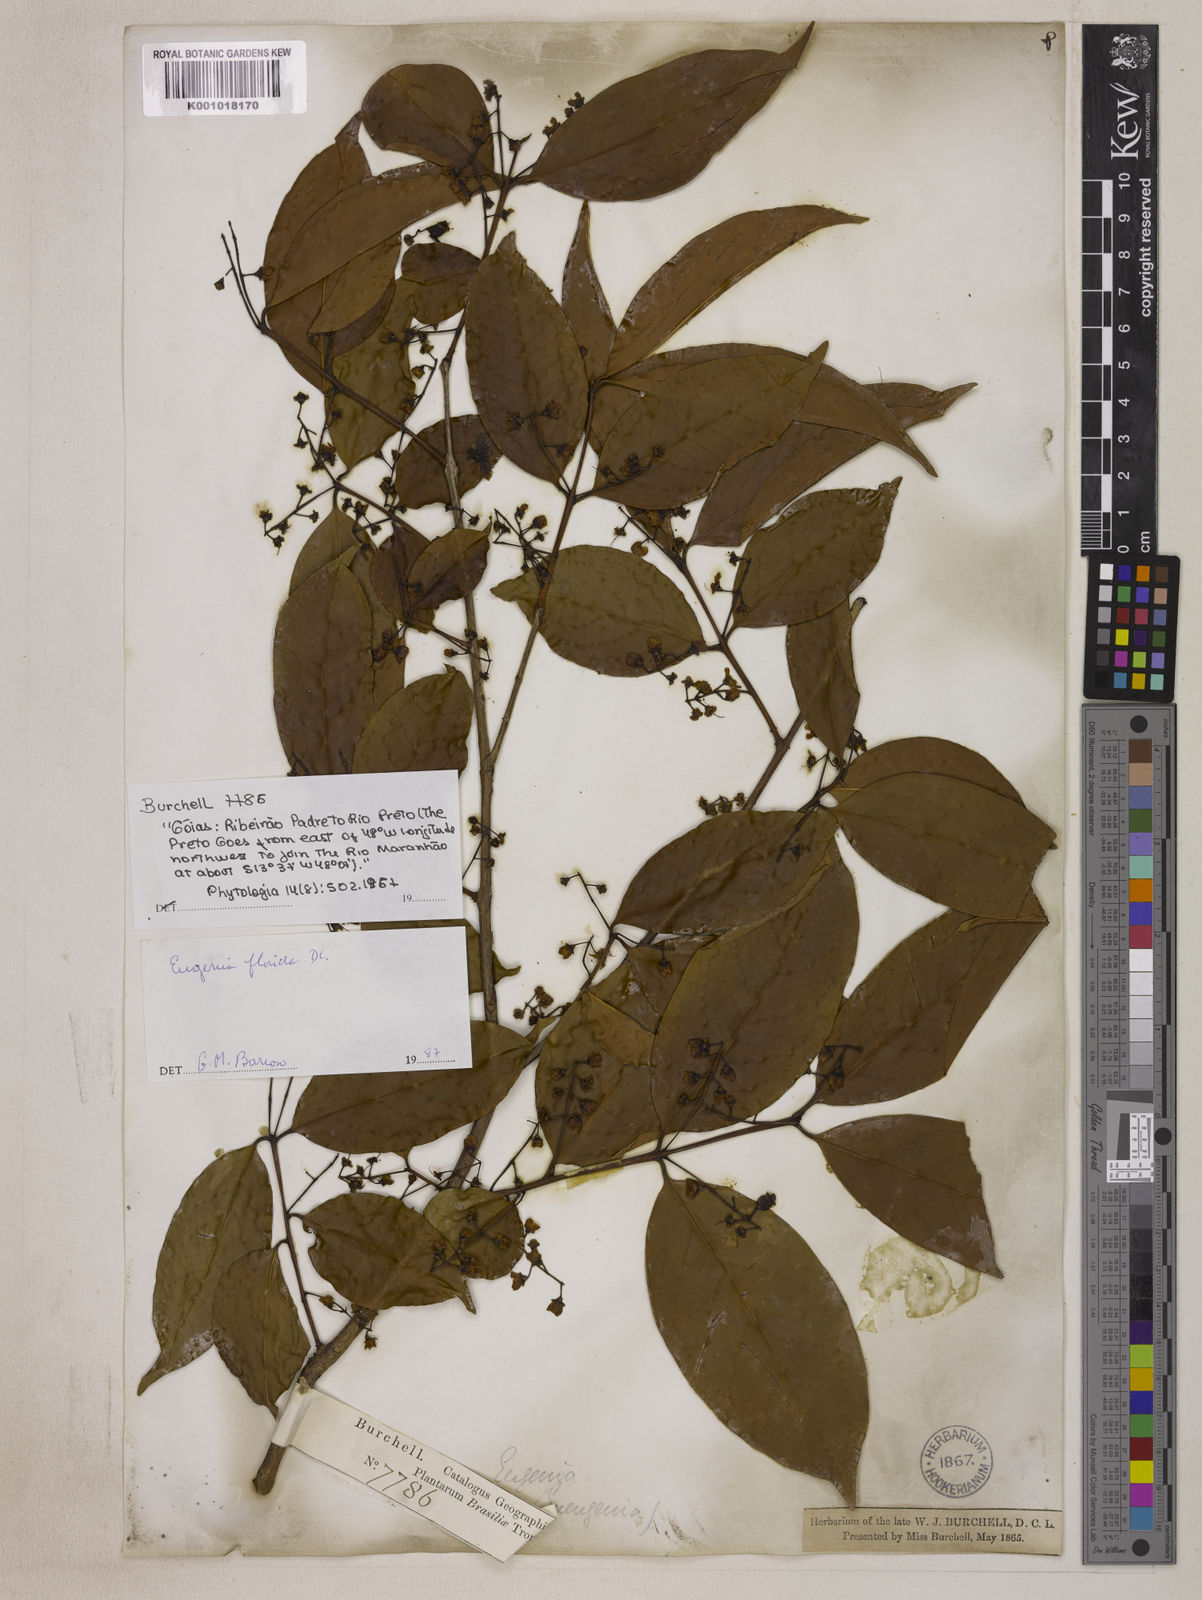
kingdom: Plantae
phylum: Tracheophyta
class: Magnoliopsida
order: Myrtales
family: Myrtaceae
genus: Eugenia
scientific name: Eugenia florida
